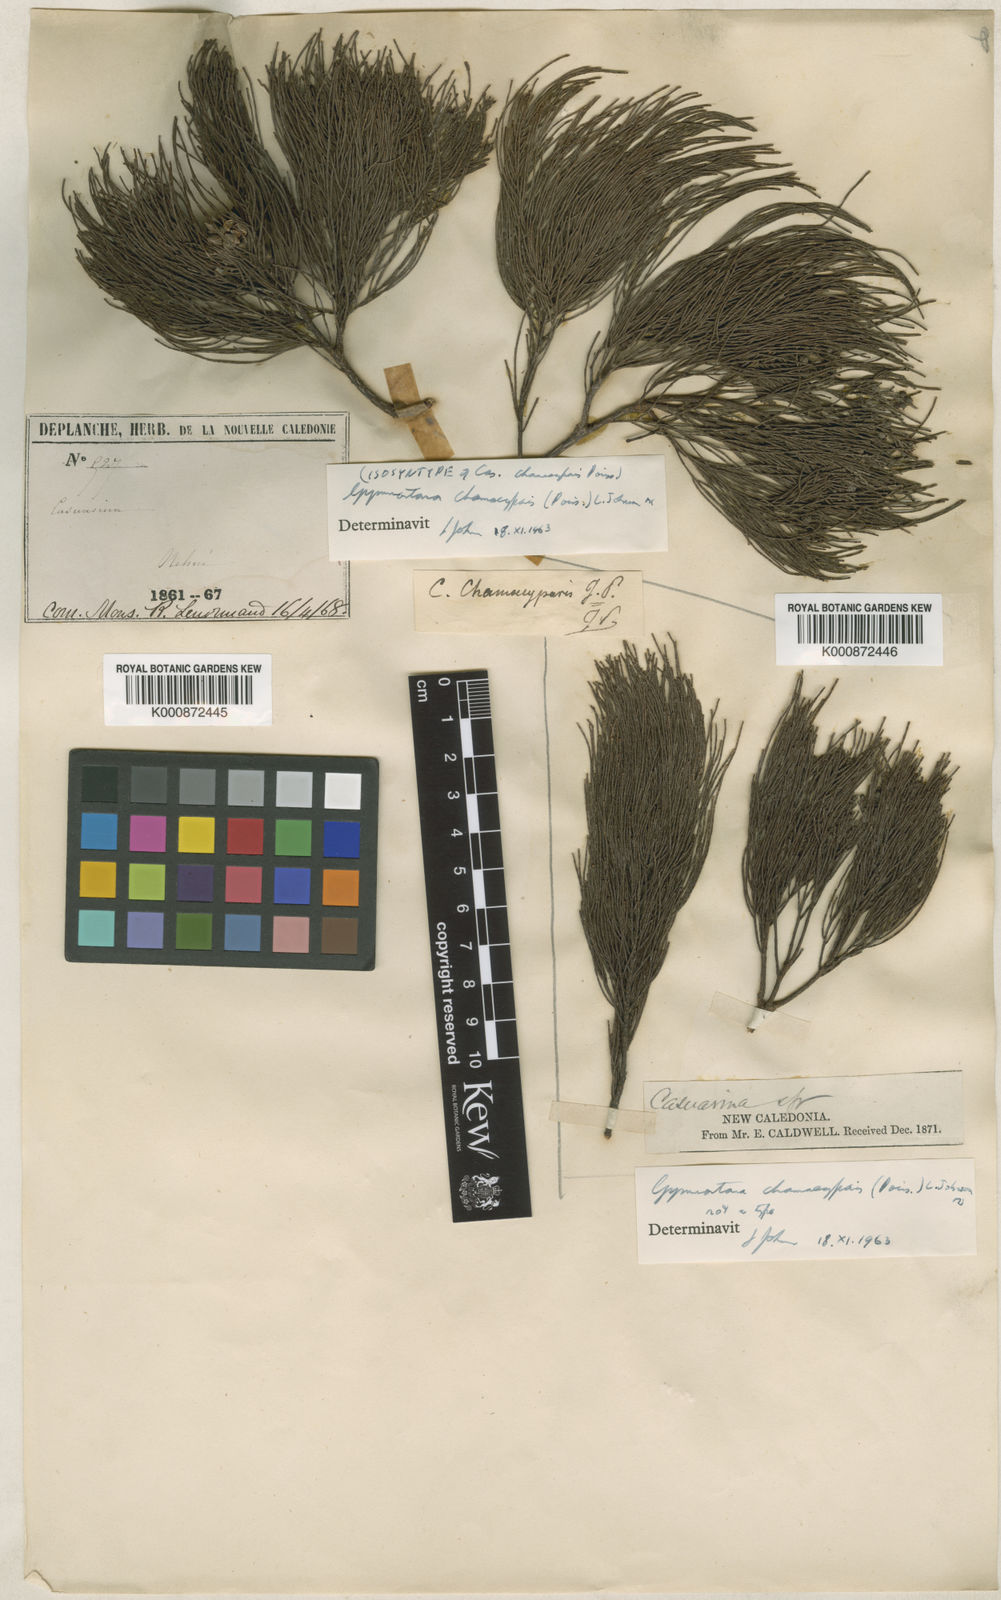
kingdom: Plantae
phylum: Tracheophyta
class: Magnoliopsida
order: Fagales
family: Casuarinaceae
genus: Gymnostoma
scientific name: Gymnostoma chamaecyparis
